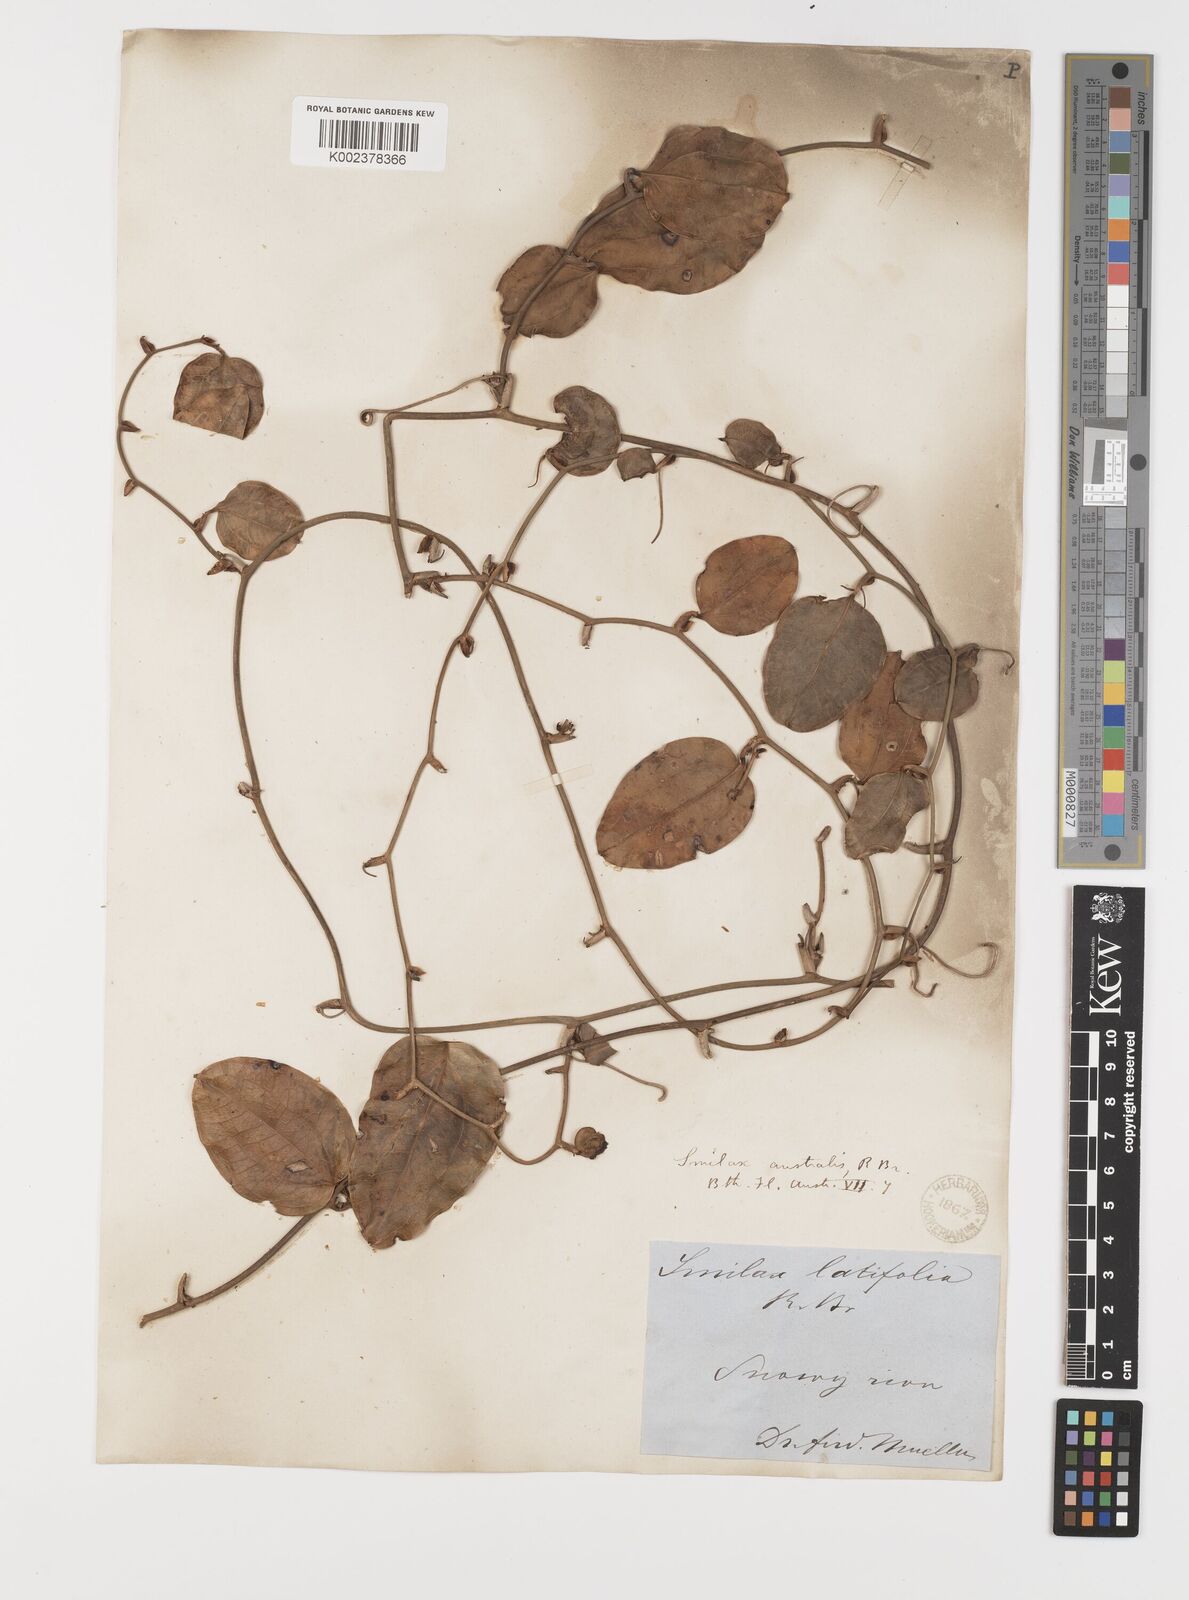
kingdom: Plantae
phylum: Tracheophyta
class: Liliopsida
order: Liliales
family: Smilacaceae
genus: Smilax
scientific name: Smilax australis
